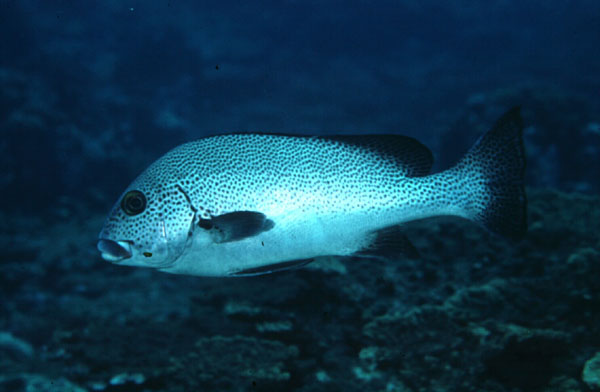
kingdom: Animalia
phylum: Chordata
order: Perciformes
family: Haemulidae
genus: Plectorhinchus
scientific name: Plectorhinchus picus
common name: Spotted sweetlips
